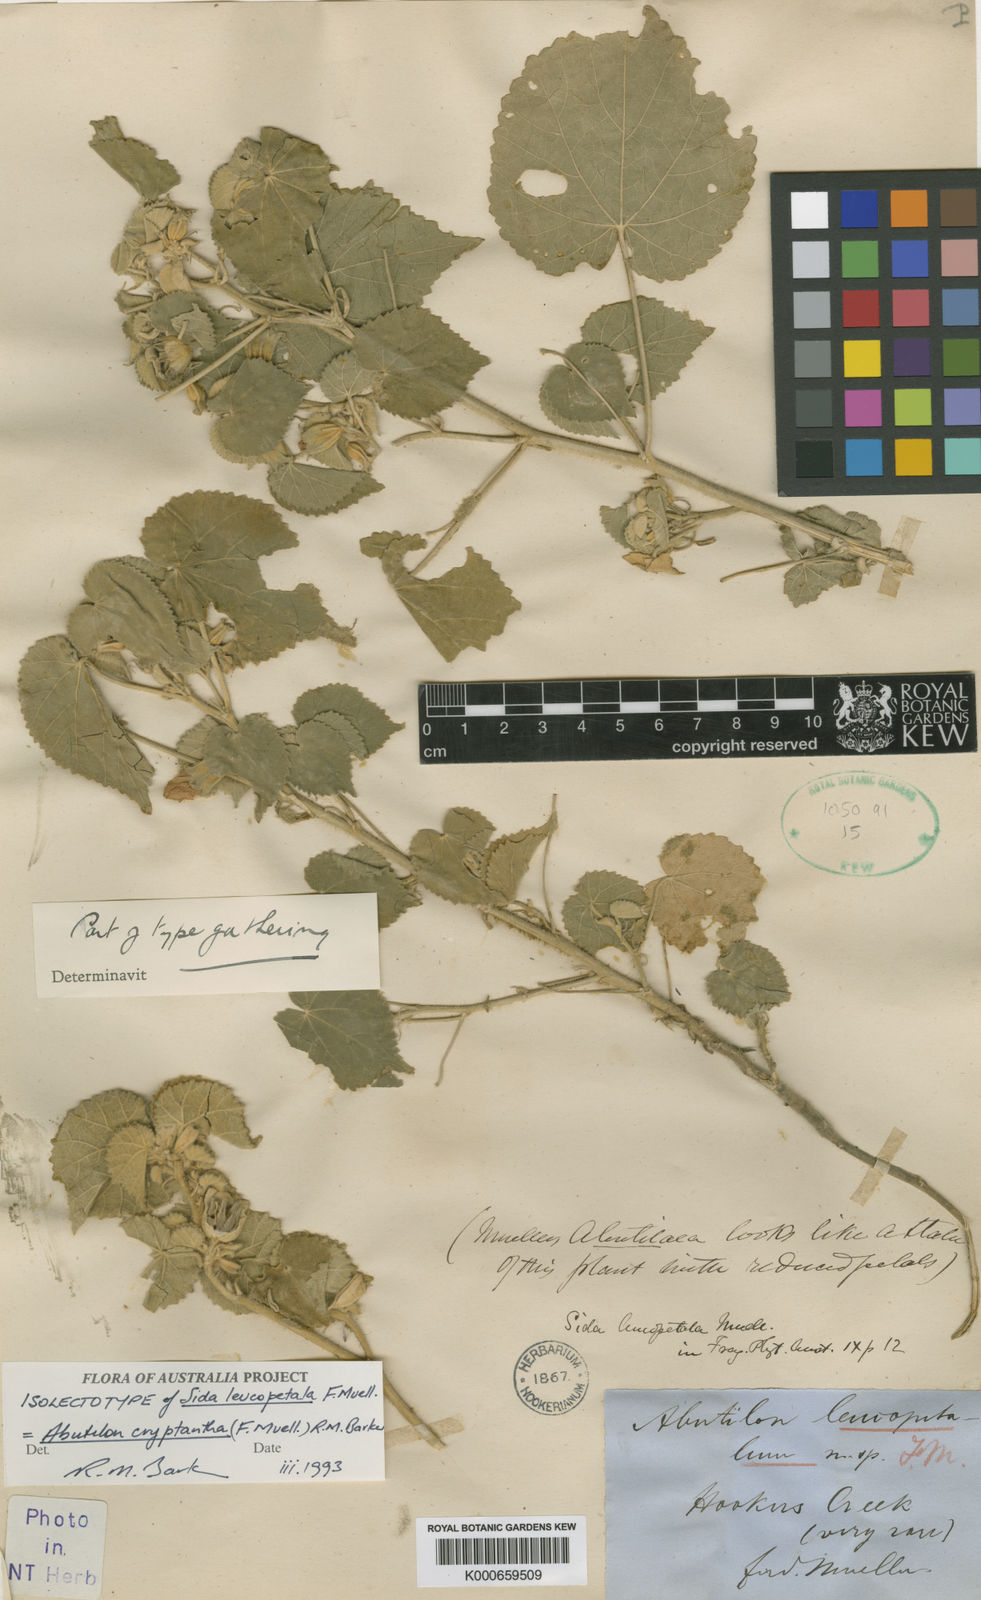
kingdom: Plantae
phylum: Tracheophyta
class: Magnoliopsida
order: Malvales
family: Malvaceae
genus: Abutilon
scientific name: Abutilon leucopetalum
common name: Lanternbush
